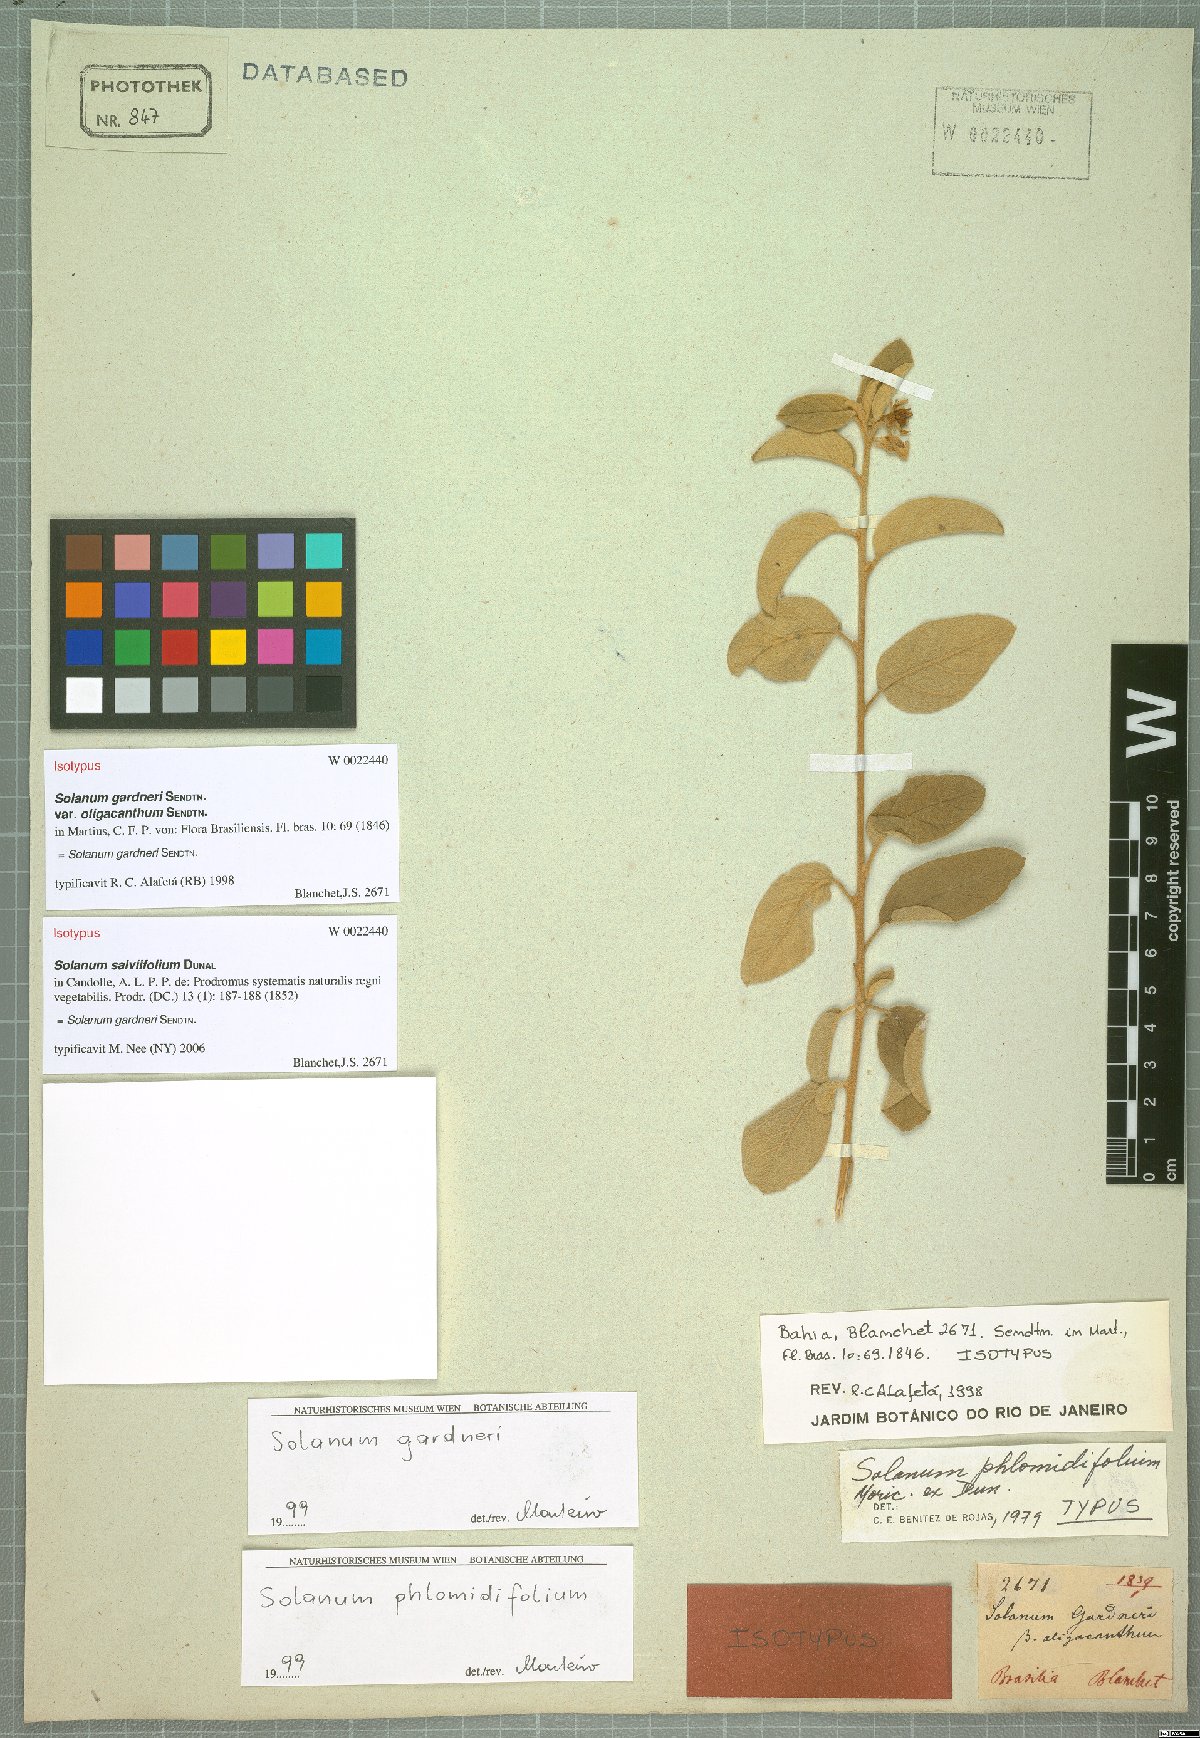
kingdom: Plantae
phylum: Tracheophyta
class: Magnoliopsida
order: Solanales
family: Solanaceae
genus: Solanum
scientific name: Solanum gardneri
